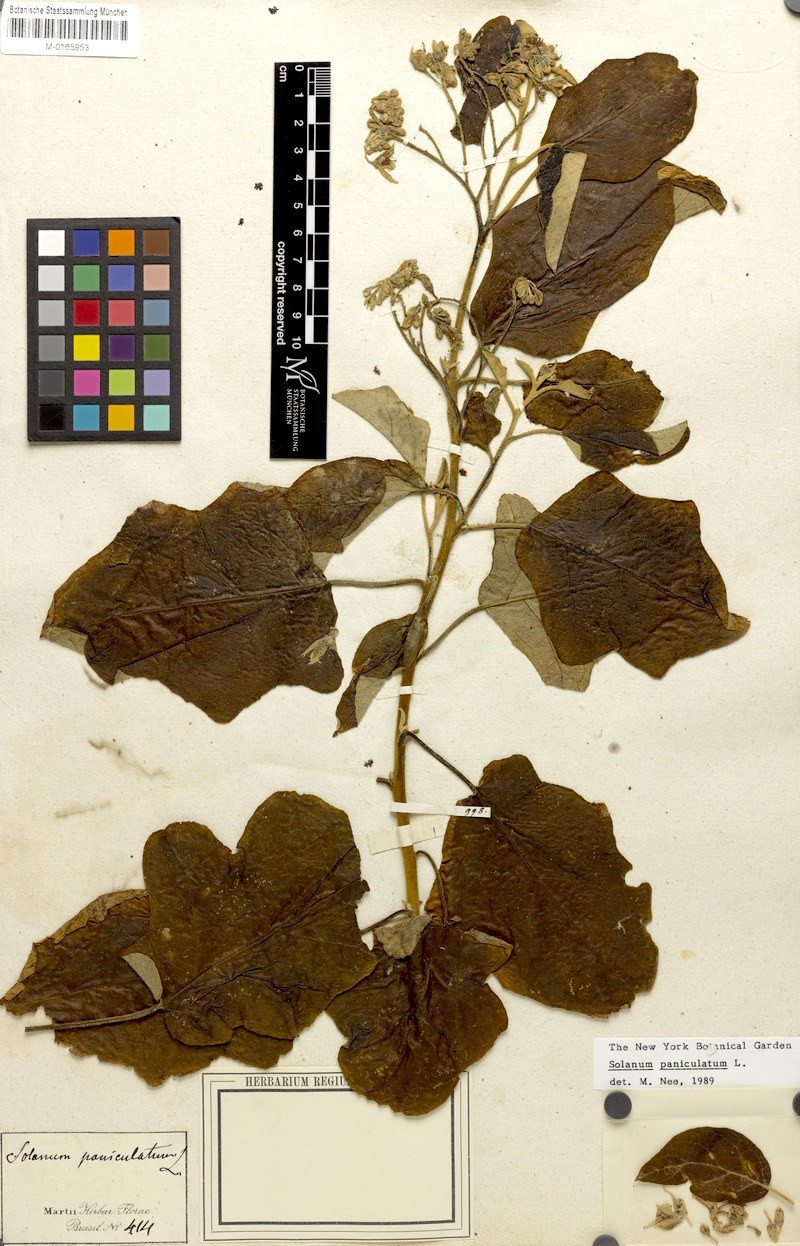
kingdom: Plantae
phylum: Tracheophyta
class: Magnoliopsida
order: Solanales
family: Solanaceae
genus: Solanum
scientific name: Solanum paniculatum
